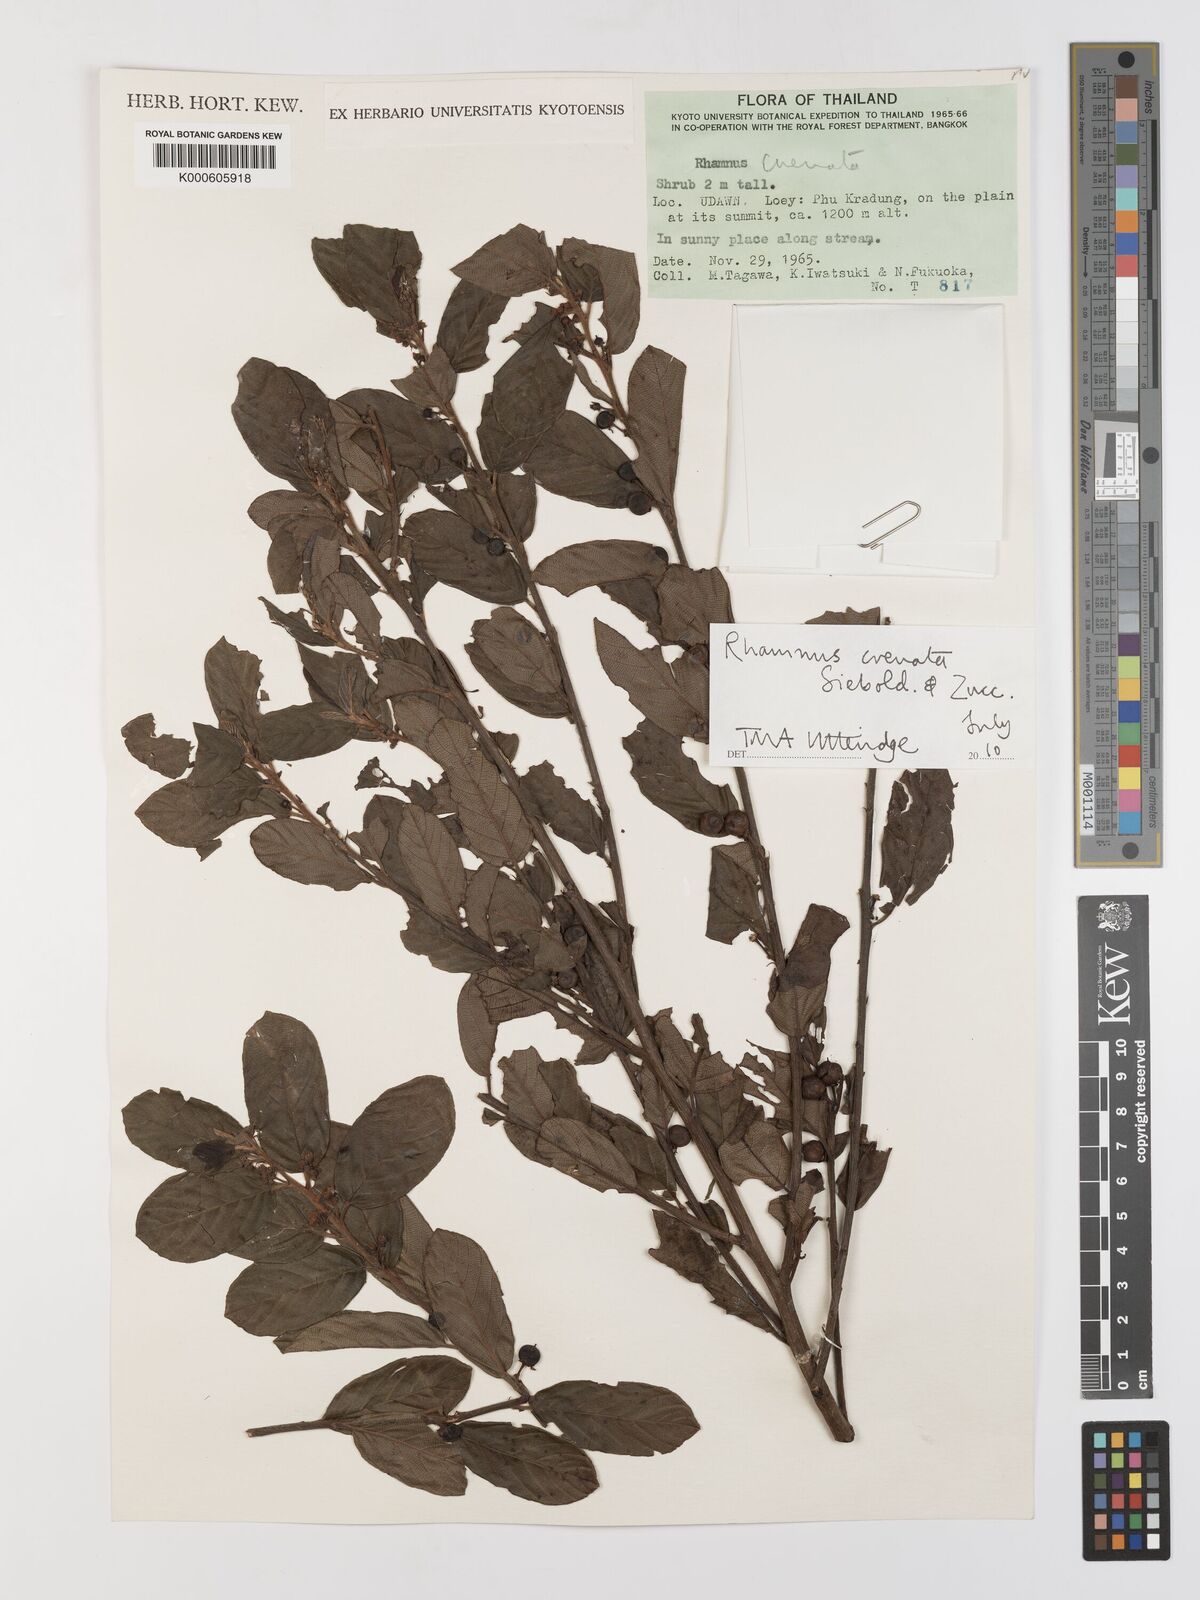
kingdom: Plantae
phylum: Tracheophyta
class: Magnoliopsida
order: Rosales
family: Rhamnaceae
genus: Frangula
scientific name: Frangula crenata
